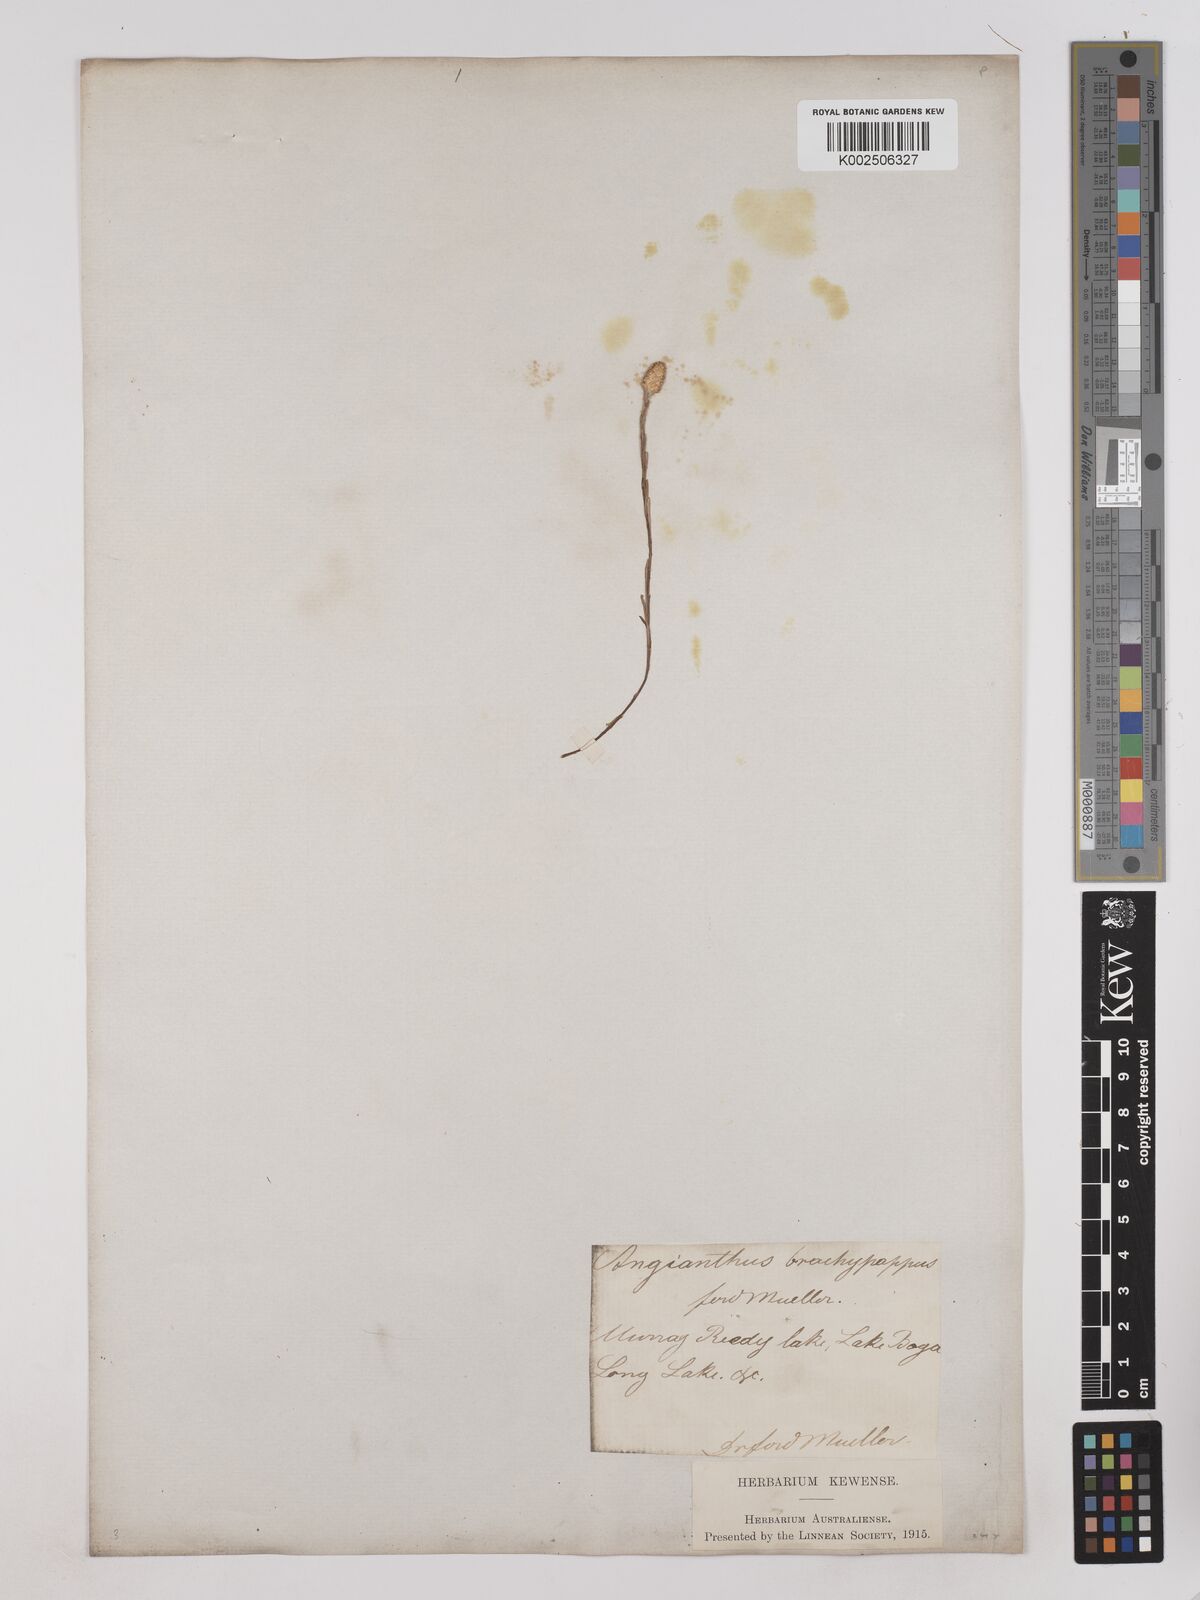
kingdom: Plantae
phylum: Tracheophyta
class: Magnoliopsida
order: Asterales
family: Asteraceae
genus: Angianthus
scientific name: Angianthus brachypappus
